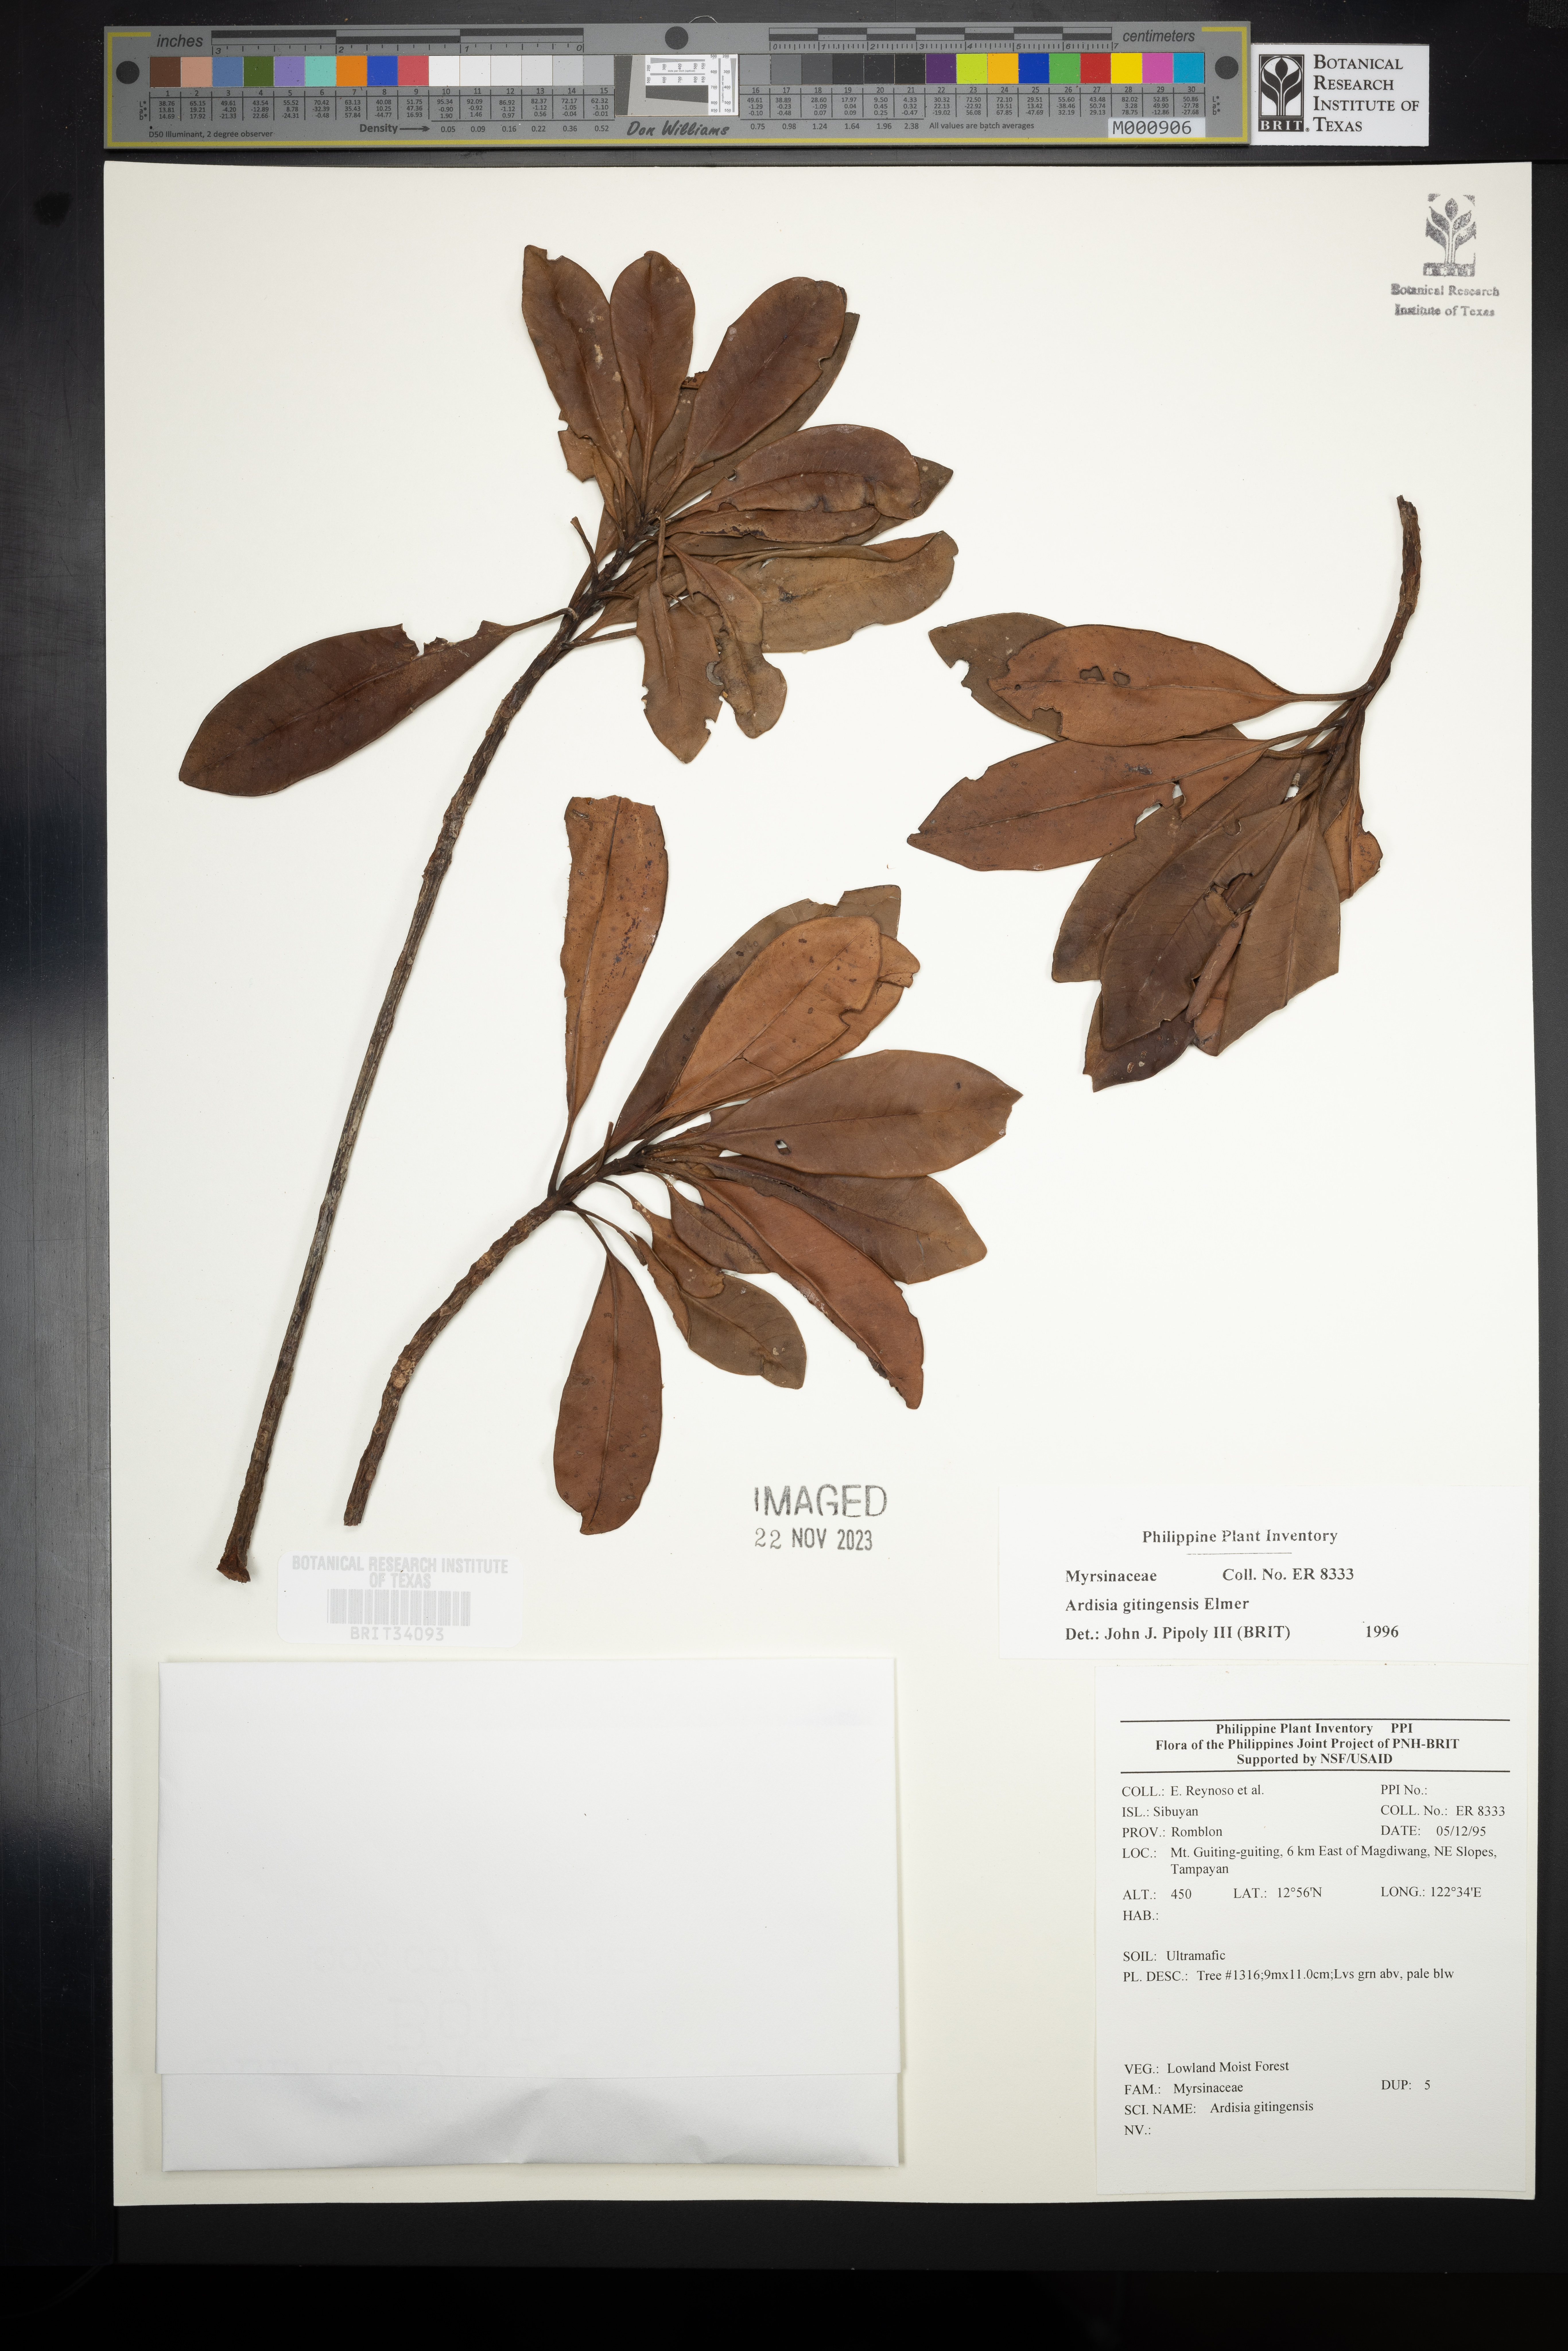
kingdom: Plantae
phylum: Tracheophyta
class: Magnoliopsida
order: Ericales
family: Primulaceae
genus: Ardisia
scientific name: Ardisia darlingii
